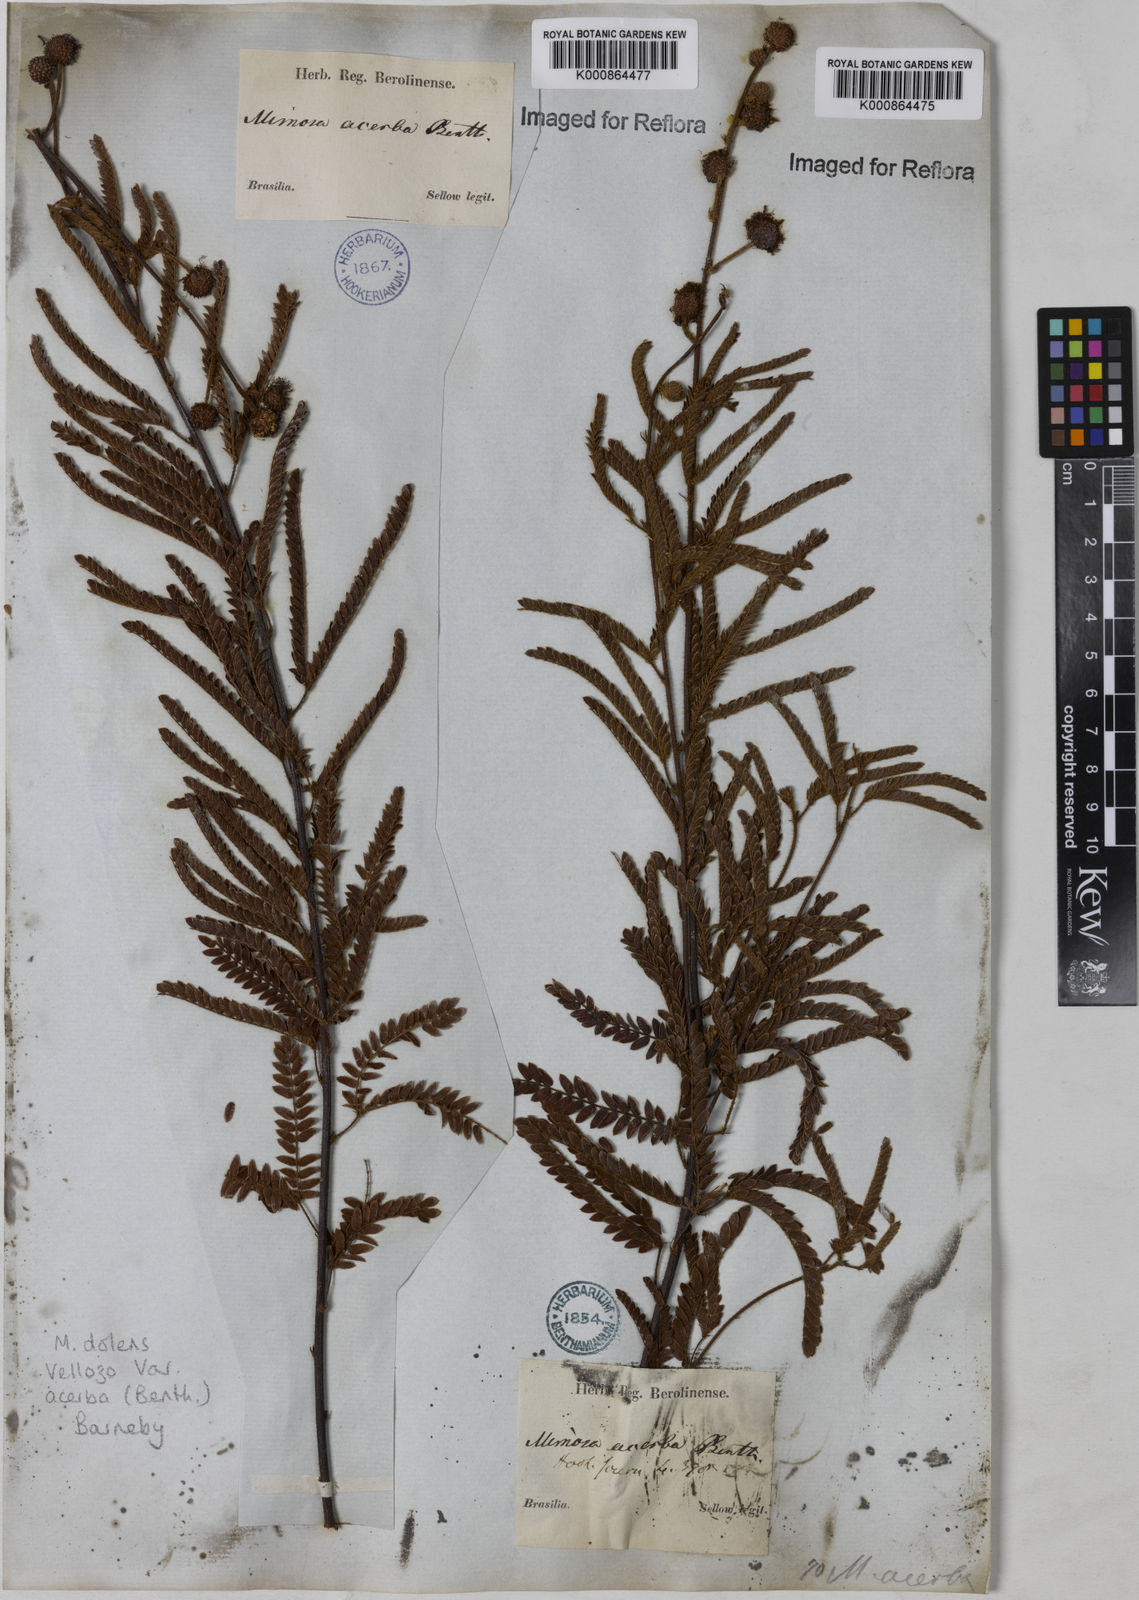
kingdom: Plantae
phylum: Tracheophyta
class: Magnoliopsida
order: Fabales
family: Fabaceae
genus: Mimosa
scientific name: Mimosa dolens
